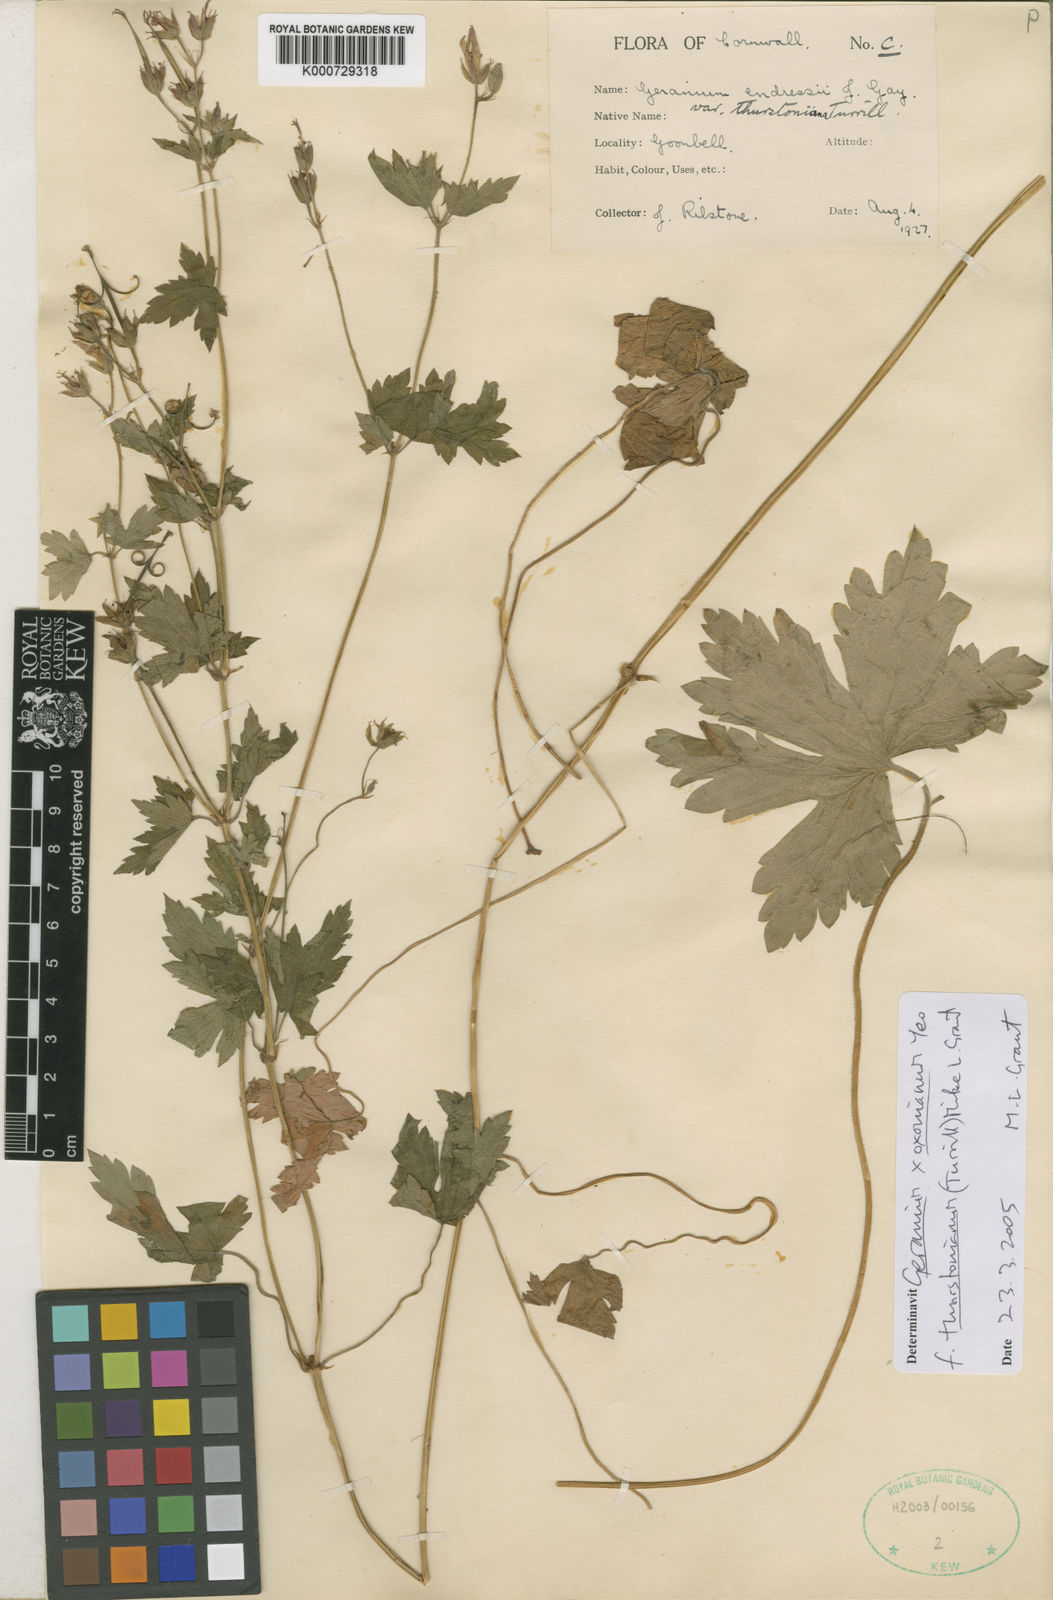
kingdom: Plantae
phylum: Tracheophyta
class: Magnoliopsida
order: Geraniales
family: Geraniaceae
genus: Geranium
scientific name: Geranium oxonianum
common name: Druce's crane's-bill
